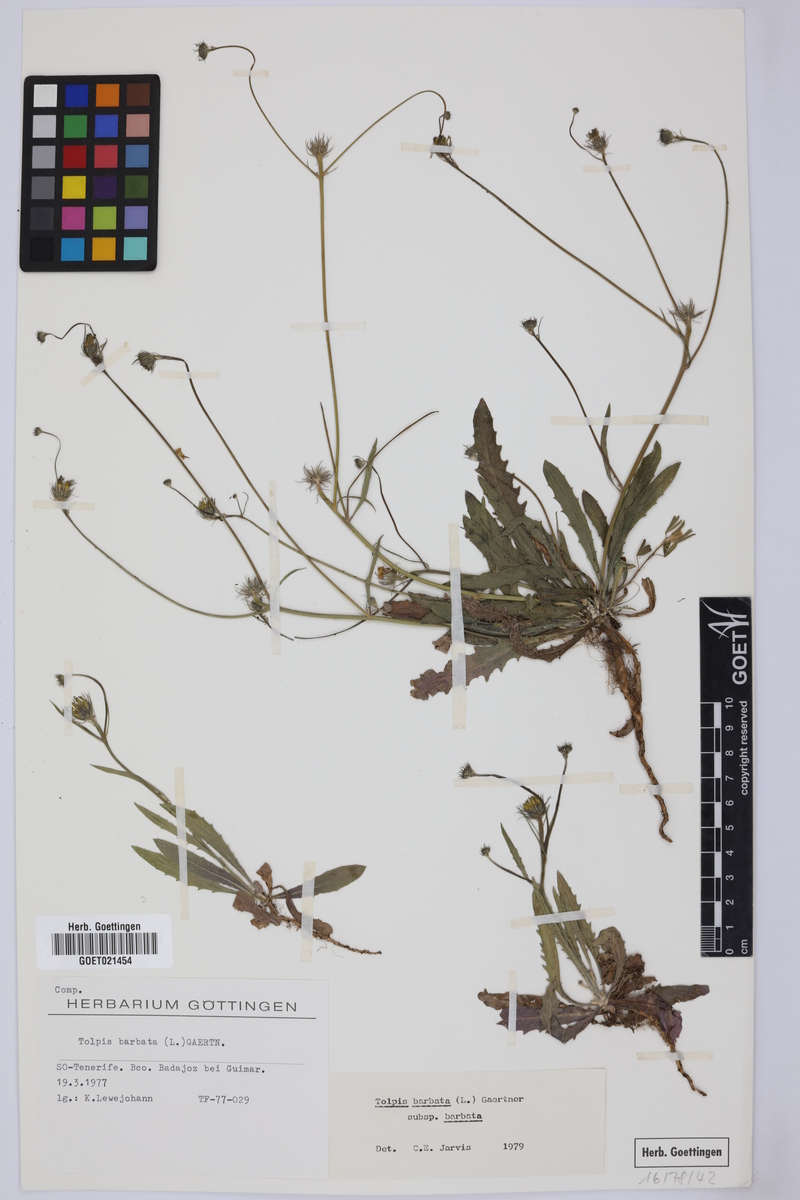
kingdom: Plantae
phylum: Tracheophyta
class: Magnoliopsida
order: Asterales
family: Asteraceae
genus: Tolpis
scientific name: Tolpis barbata
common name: Yellow hawkweed
